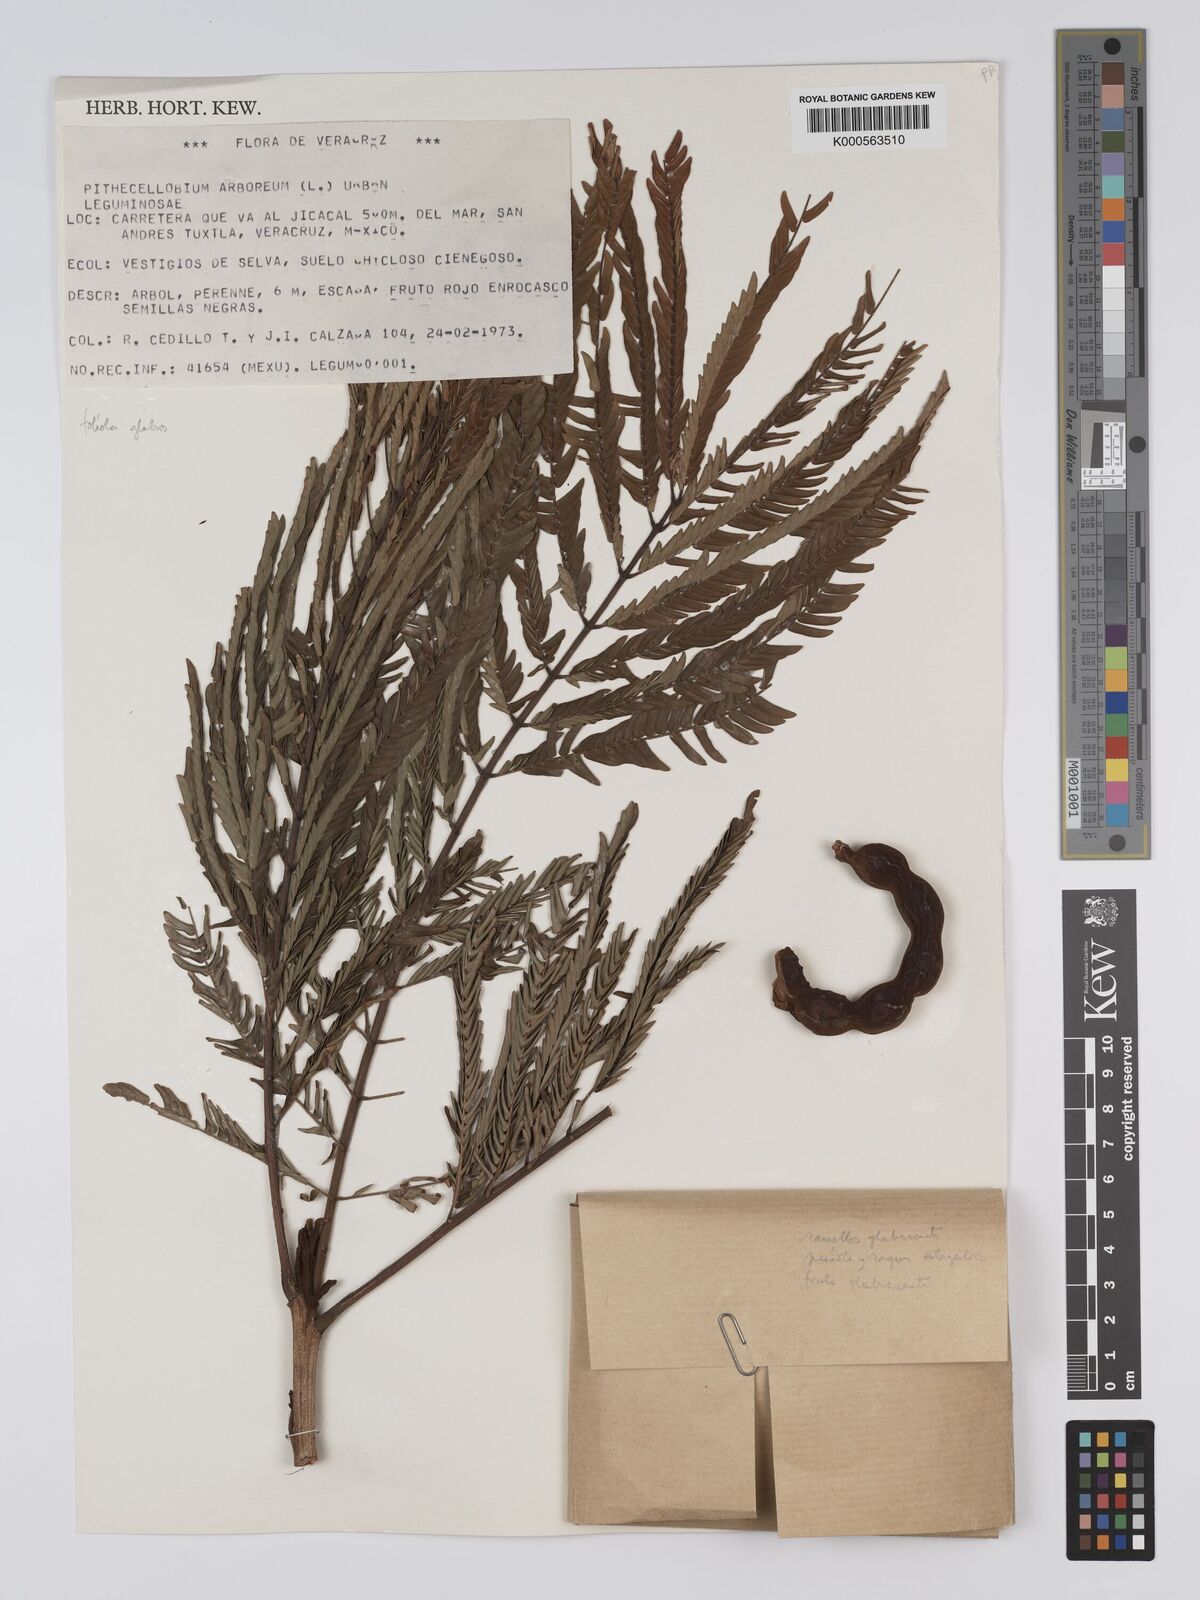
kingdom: Plantae
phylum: Tracheophyta
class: Magnoliopsida
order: Fabales
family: Fabaceae
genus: Cojoba
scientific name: Cojoba arborea
